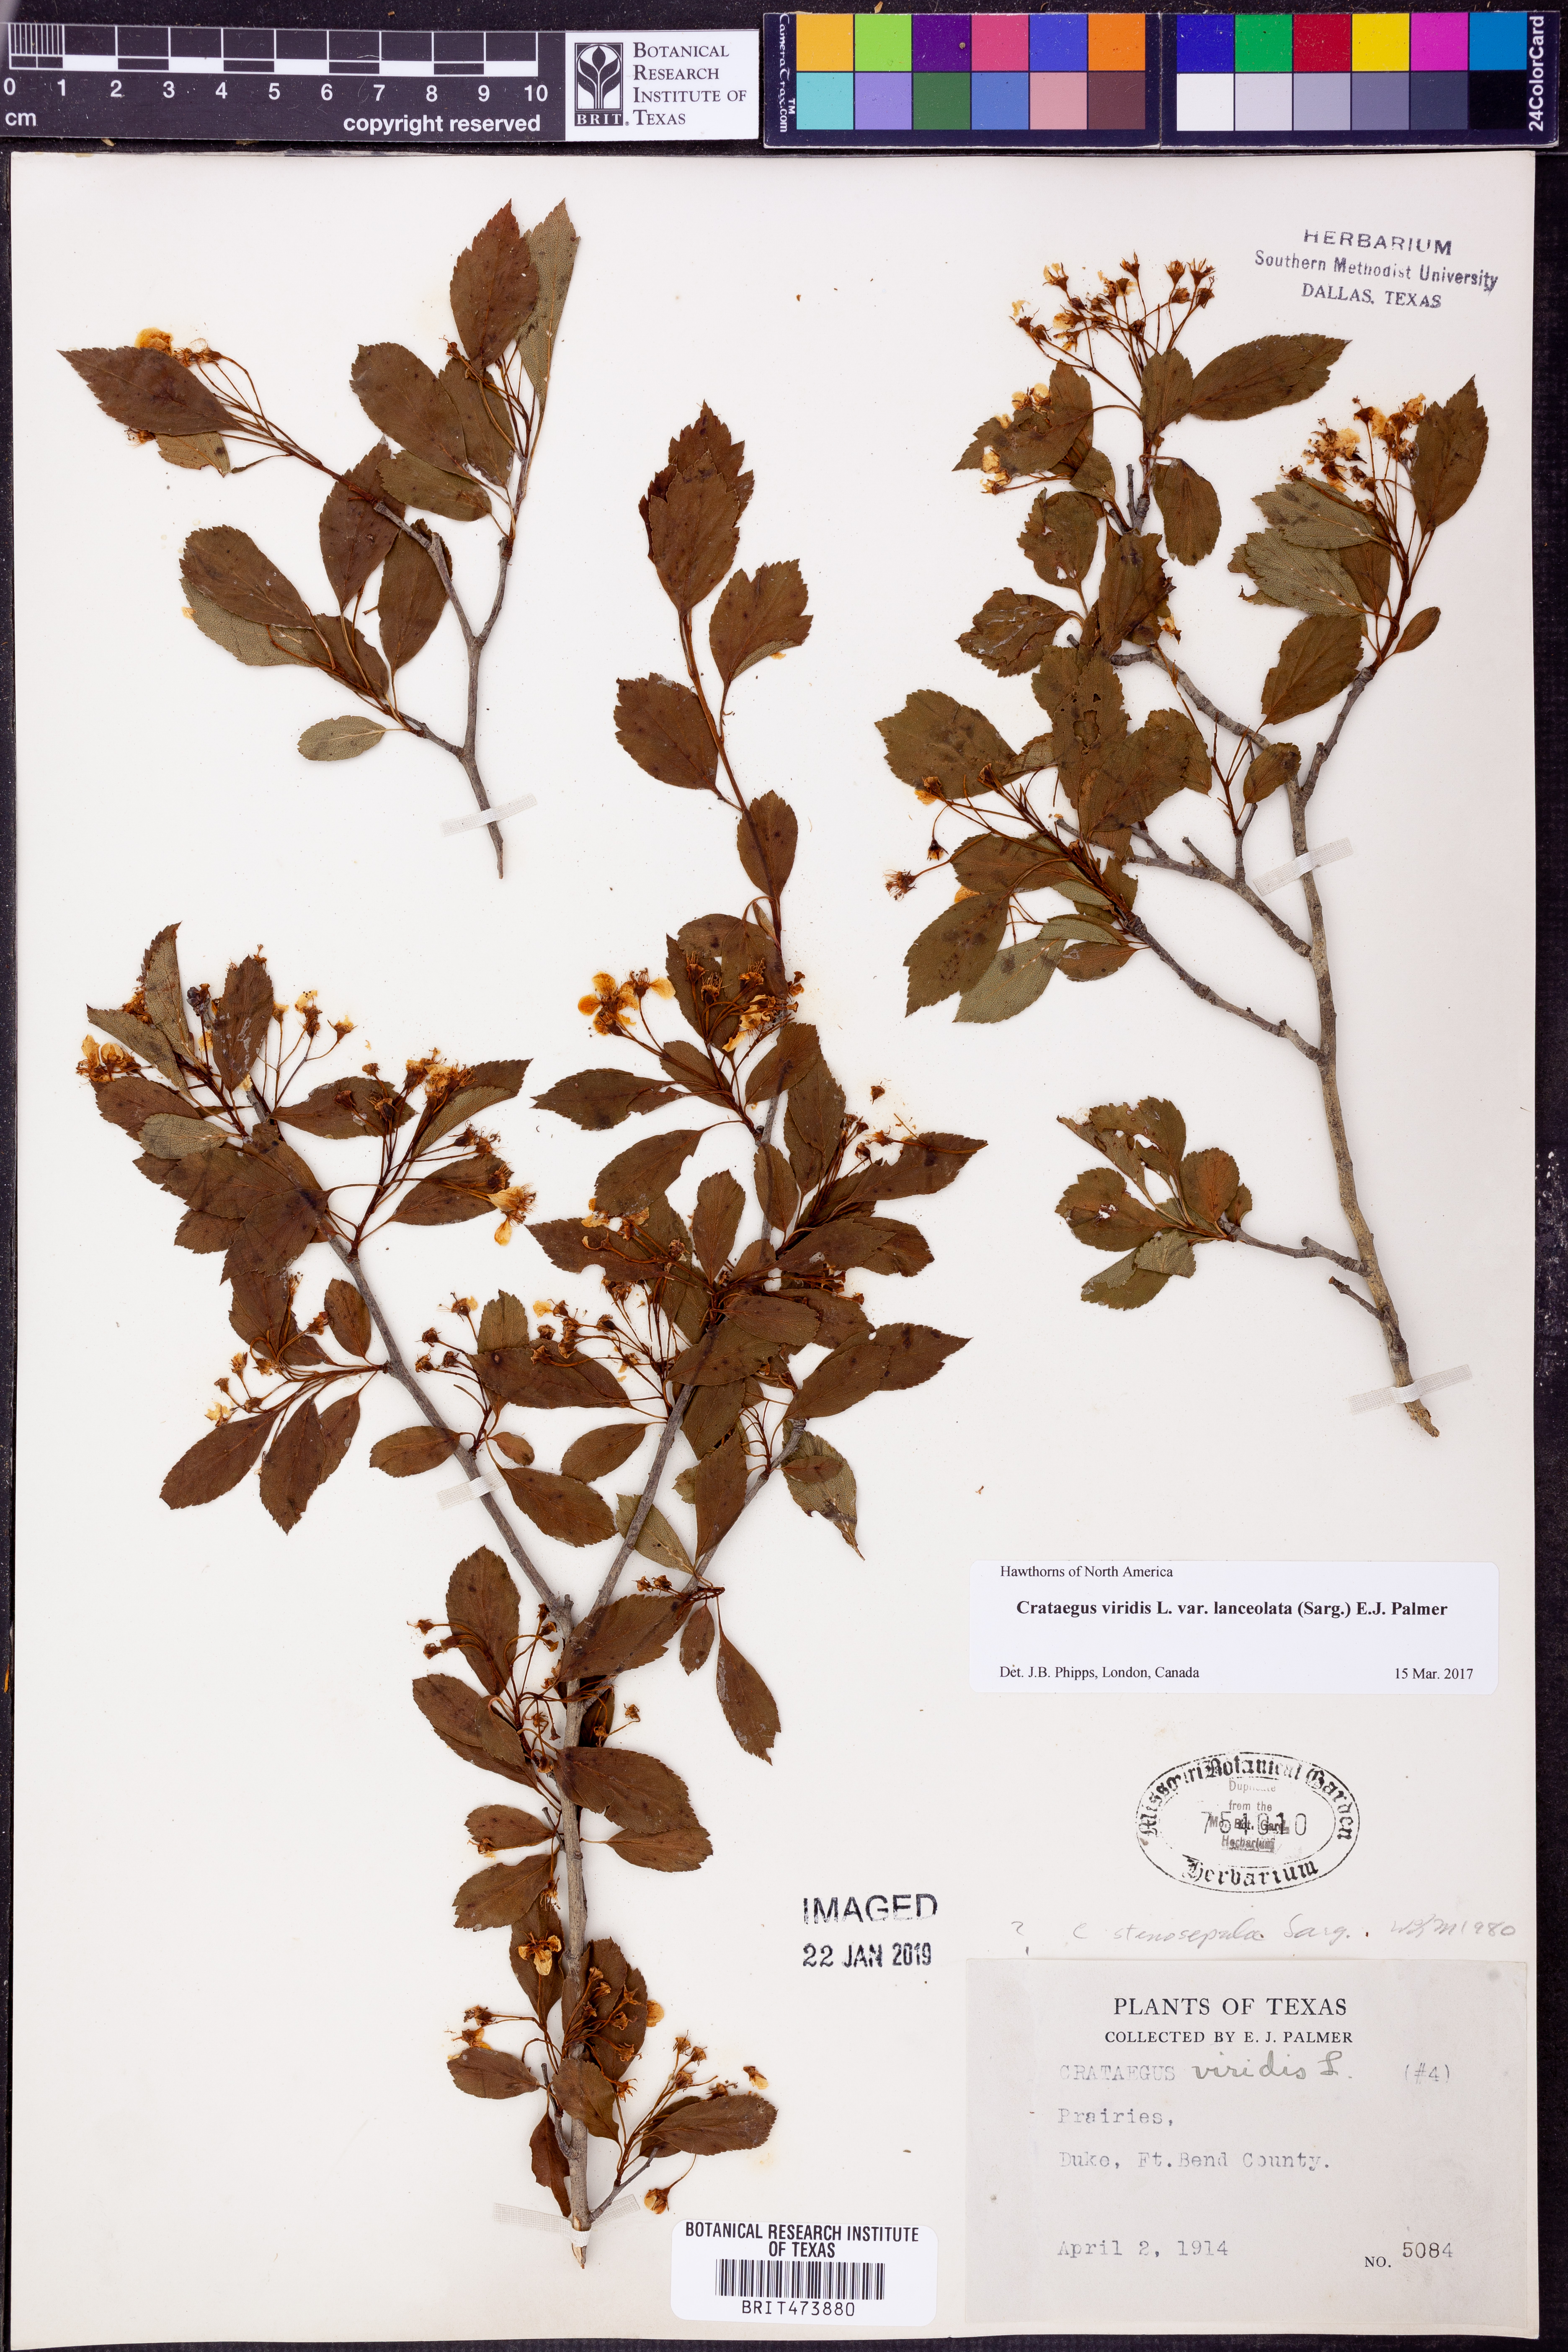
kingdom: Plantae
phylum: Tracheophyta
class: Magnoliopsida
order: Rosales
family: Rosaceae
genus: Crataegus
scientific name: Crataegus viridis
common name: Southernthorn
